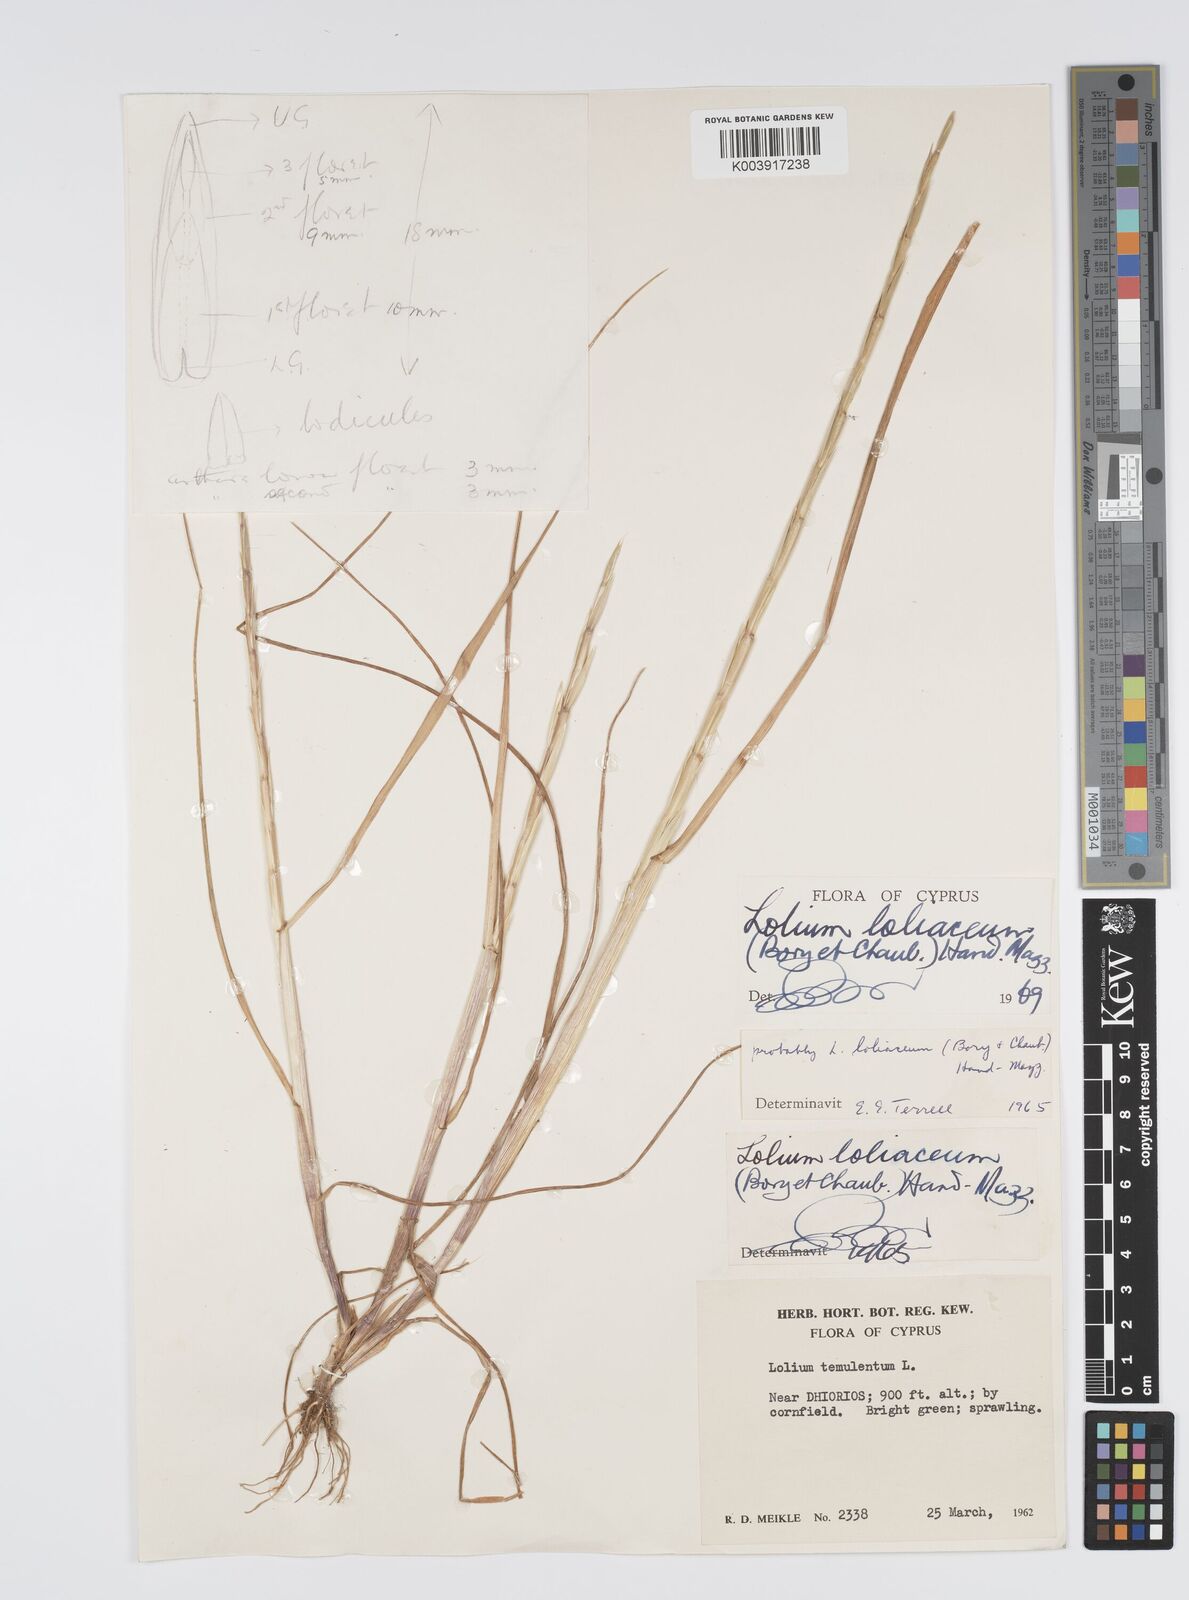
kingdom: Plantae
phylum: Tracheophyta
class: Liliopsida
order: Poales
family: Poaceae
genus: Lolium
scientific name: Lolium rigidum
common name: Wimmera ryegrass
